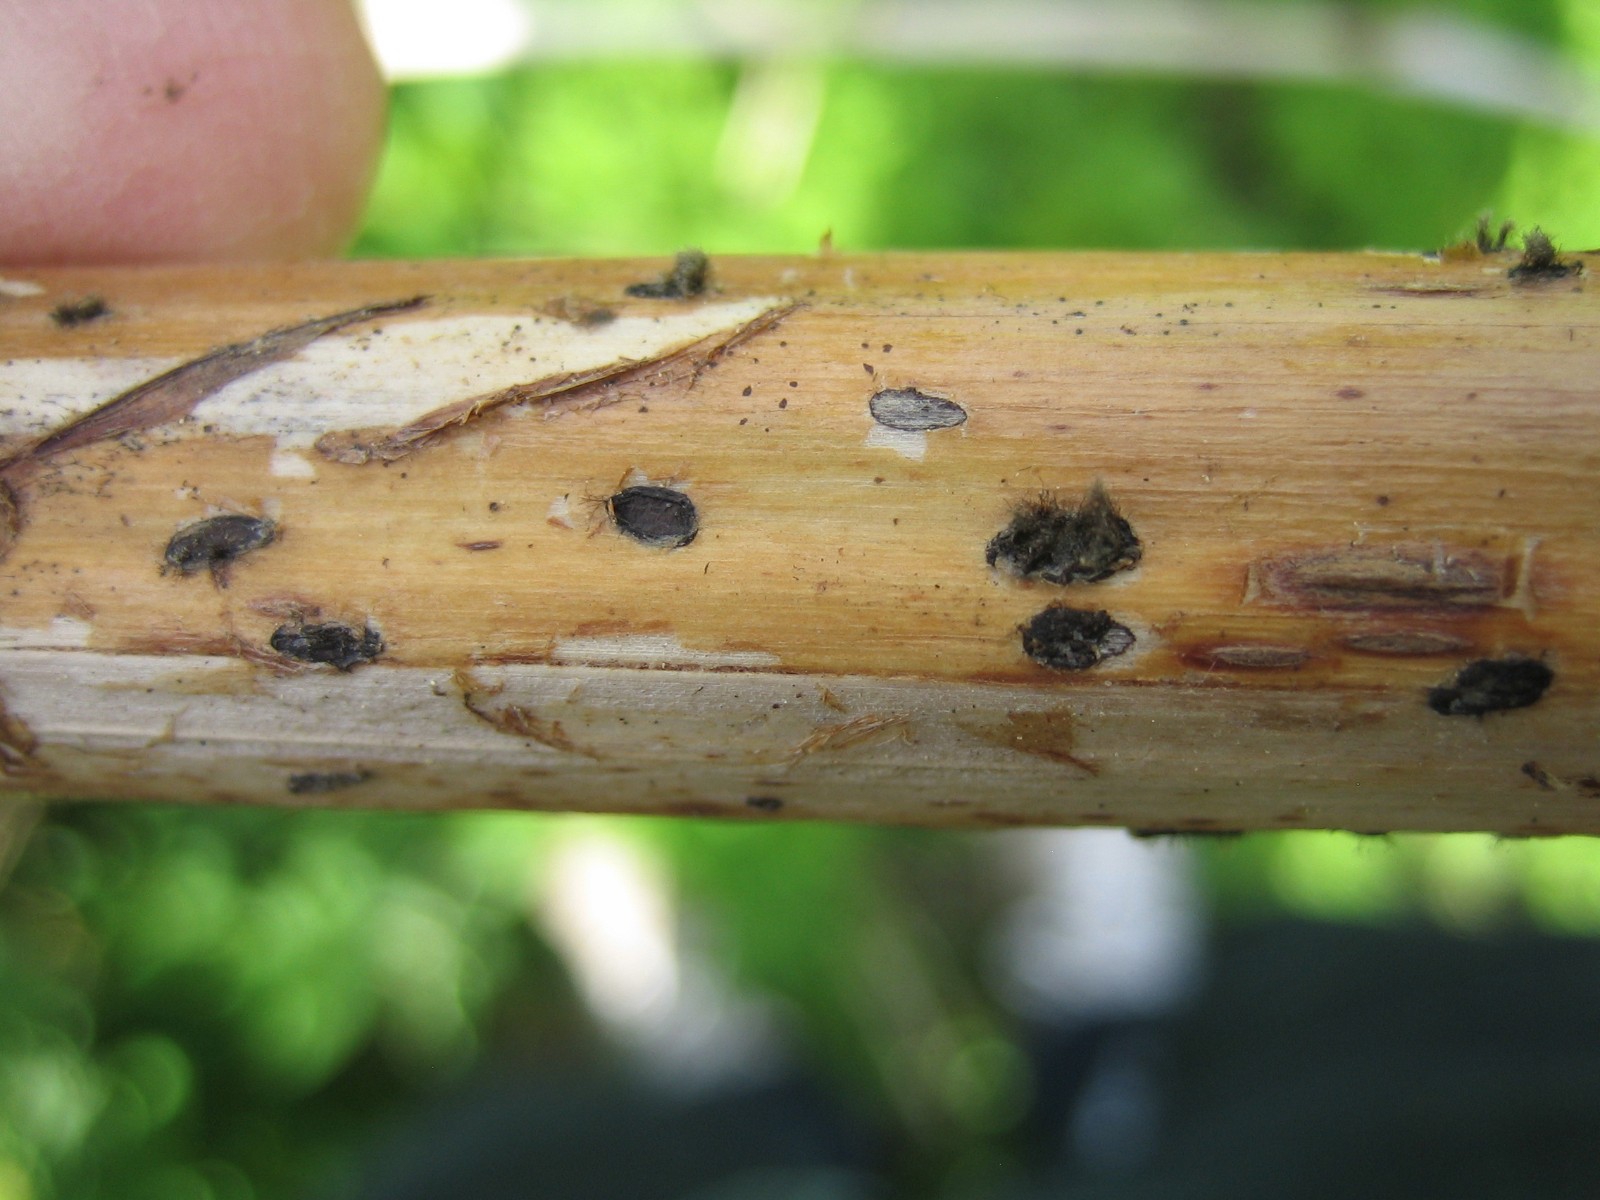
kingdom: Fungi
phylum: Ascomycota
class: Leotiomycetes
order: Helotiales
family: Sclerotiniaceae
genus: Botrytis
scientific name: Botrytis cinerea
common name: Grey mould
